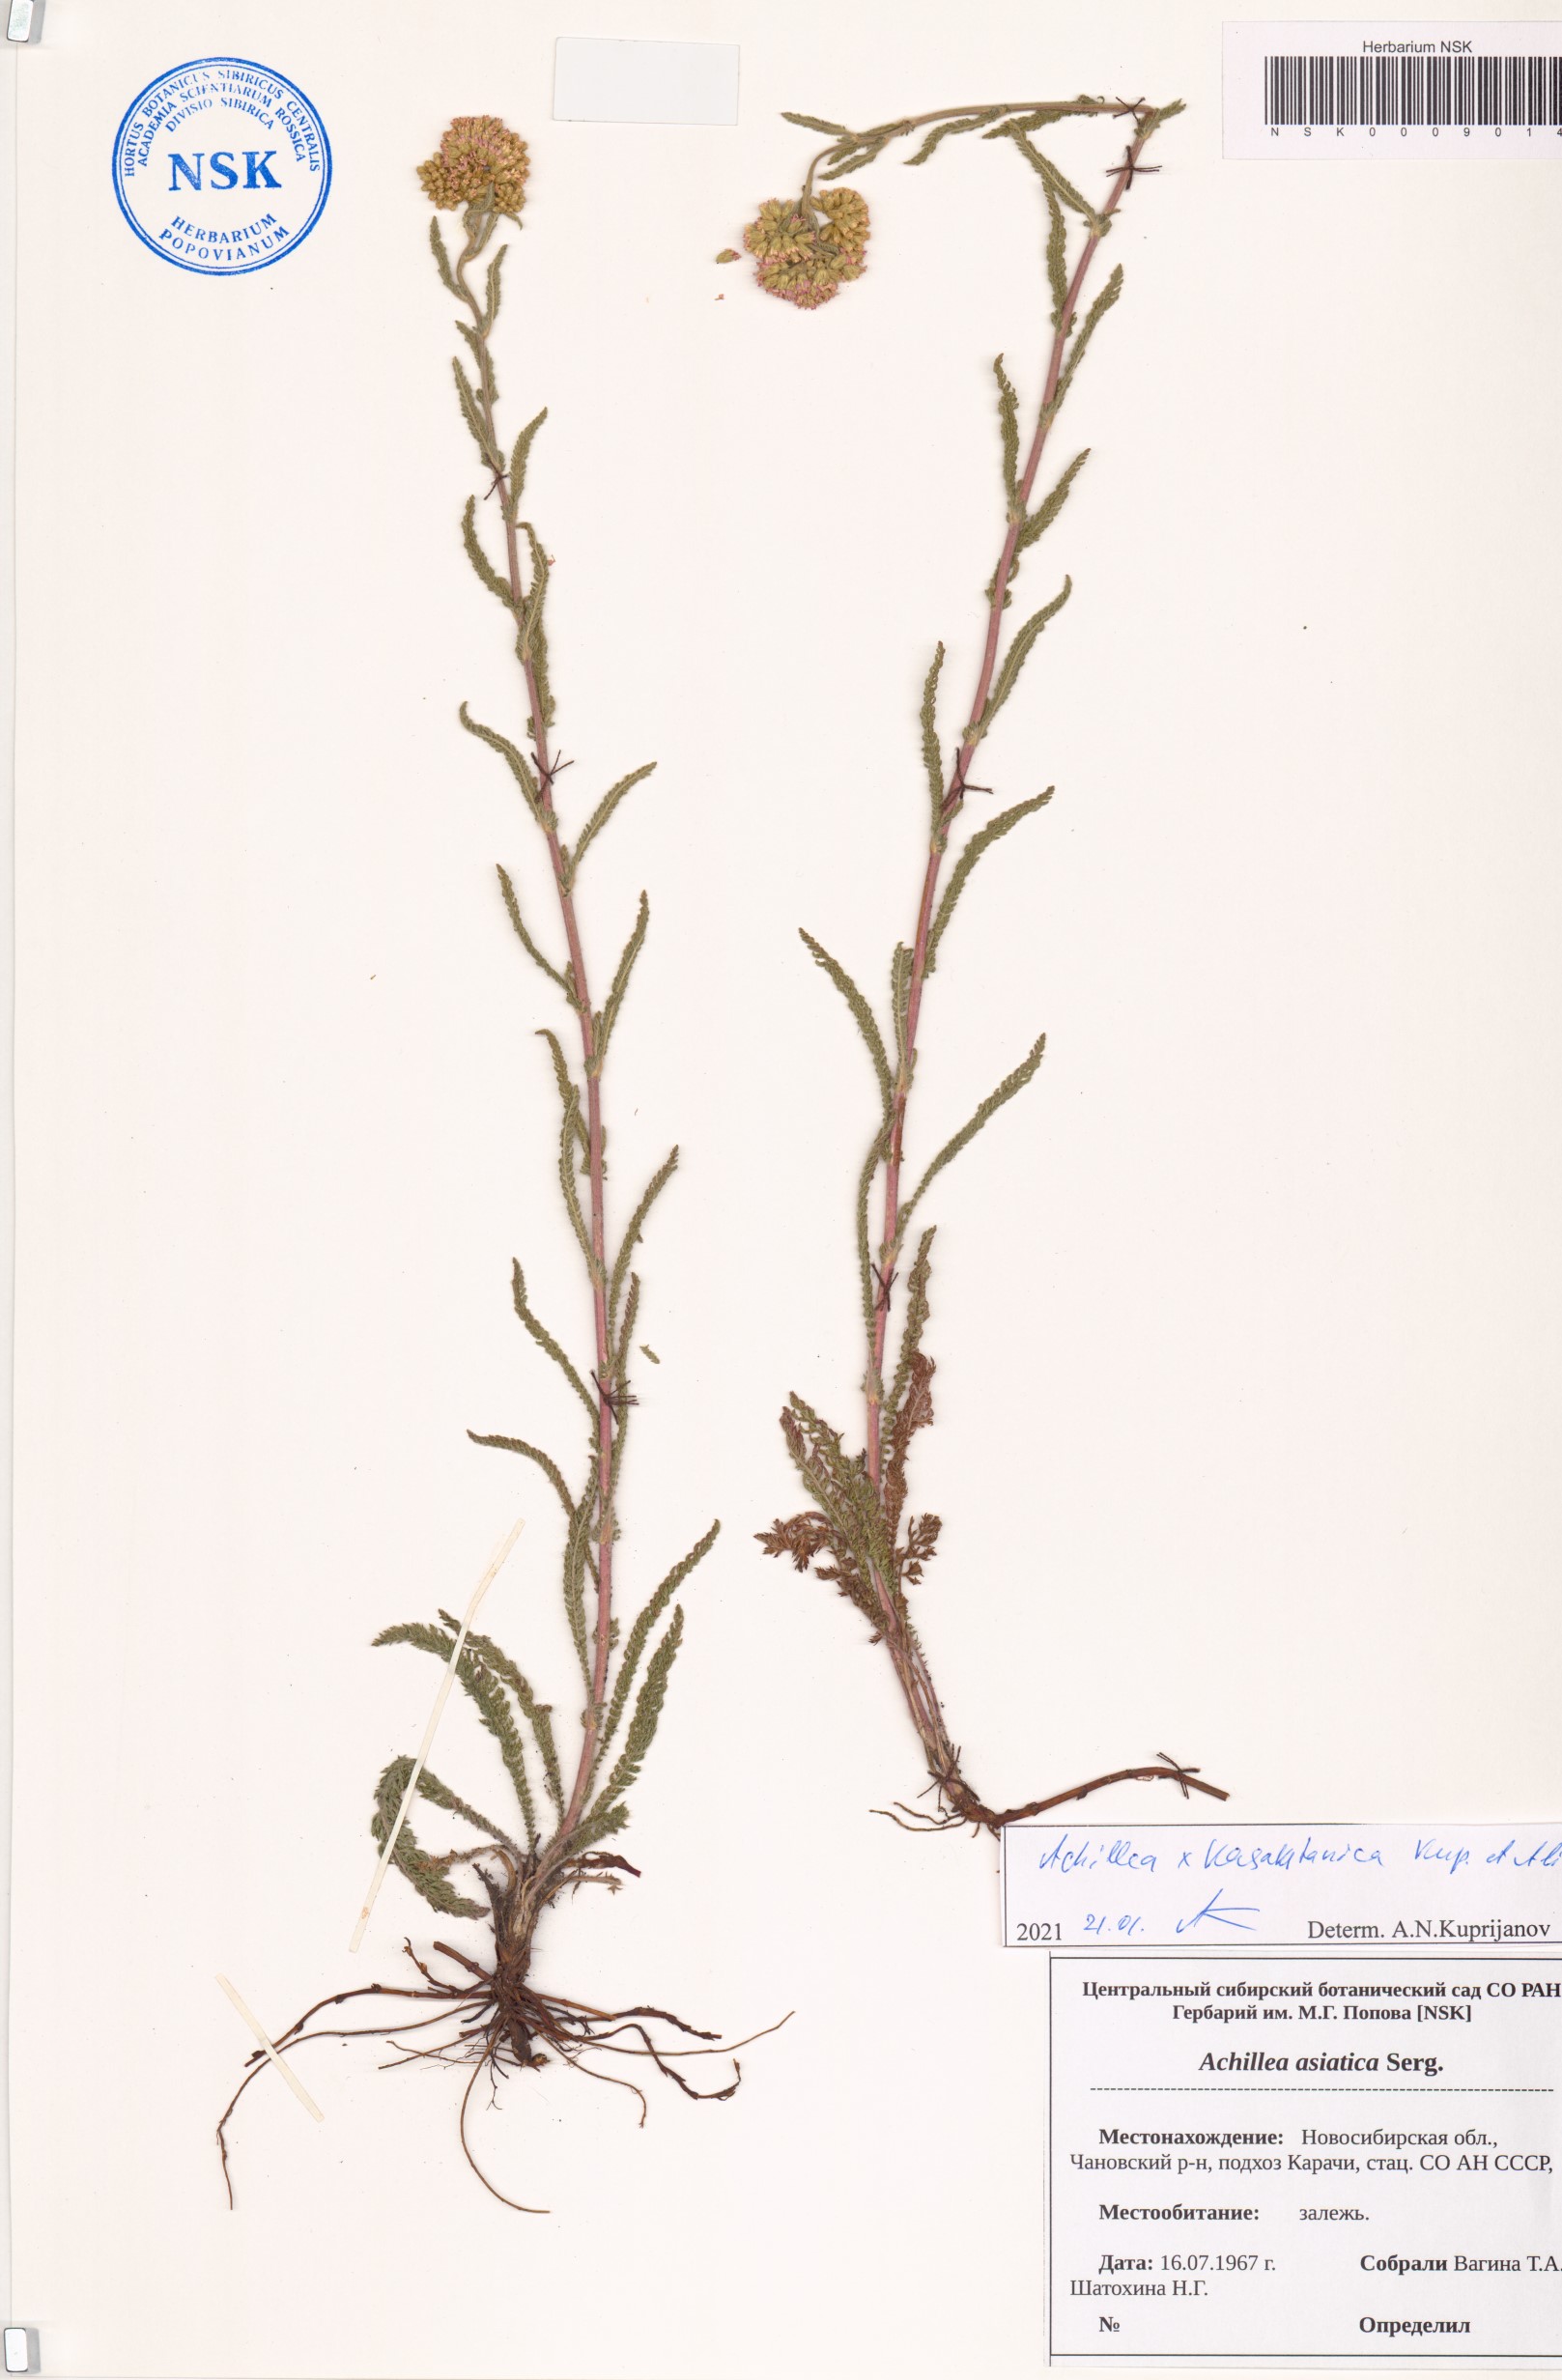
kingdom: Plantae
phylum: Tracheophyta
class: Magnoliopsida
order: Asterales
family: Asteraceae
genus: Achillea
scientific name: Achillea
